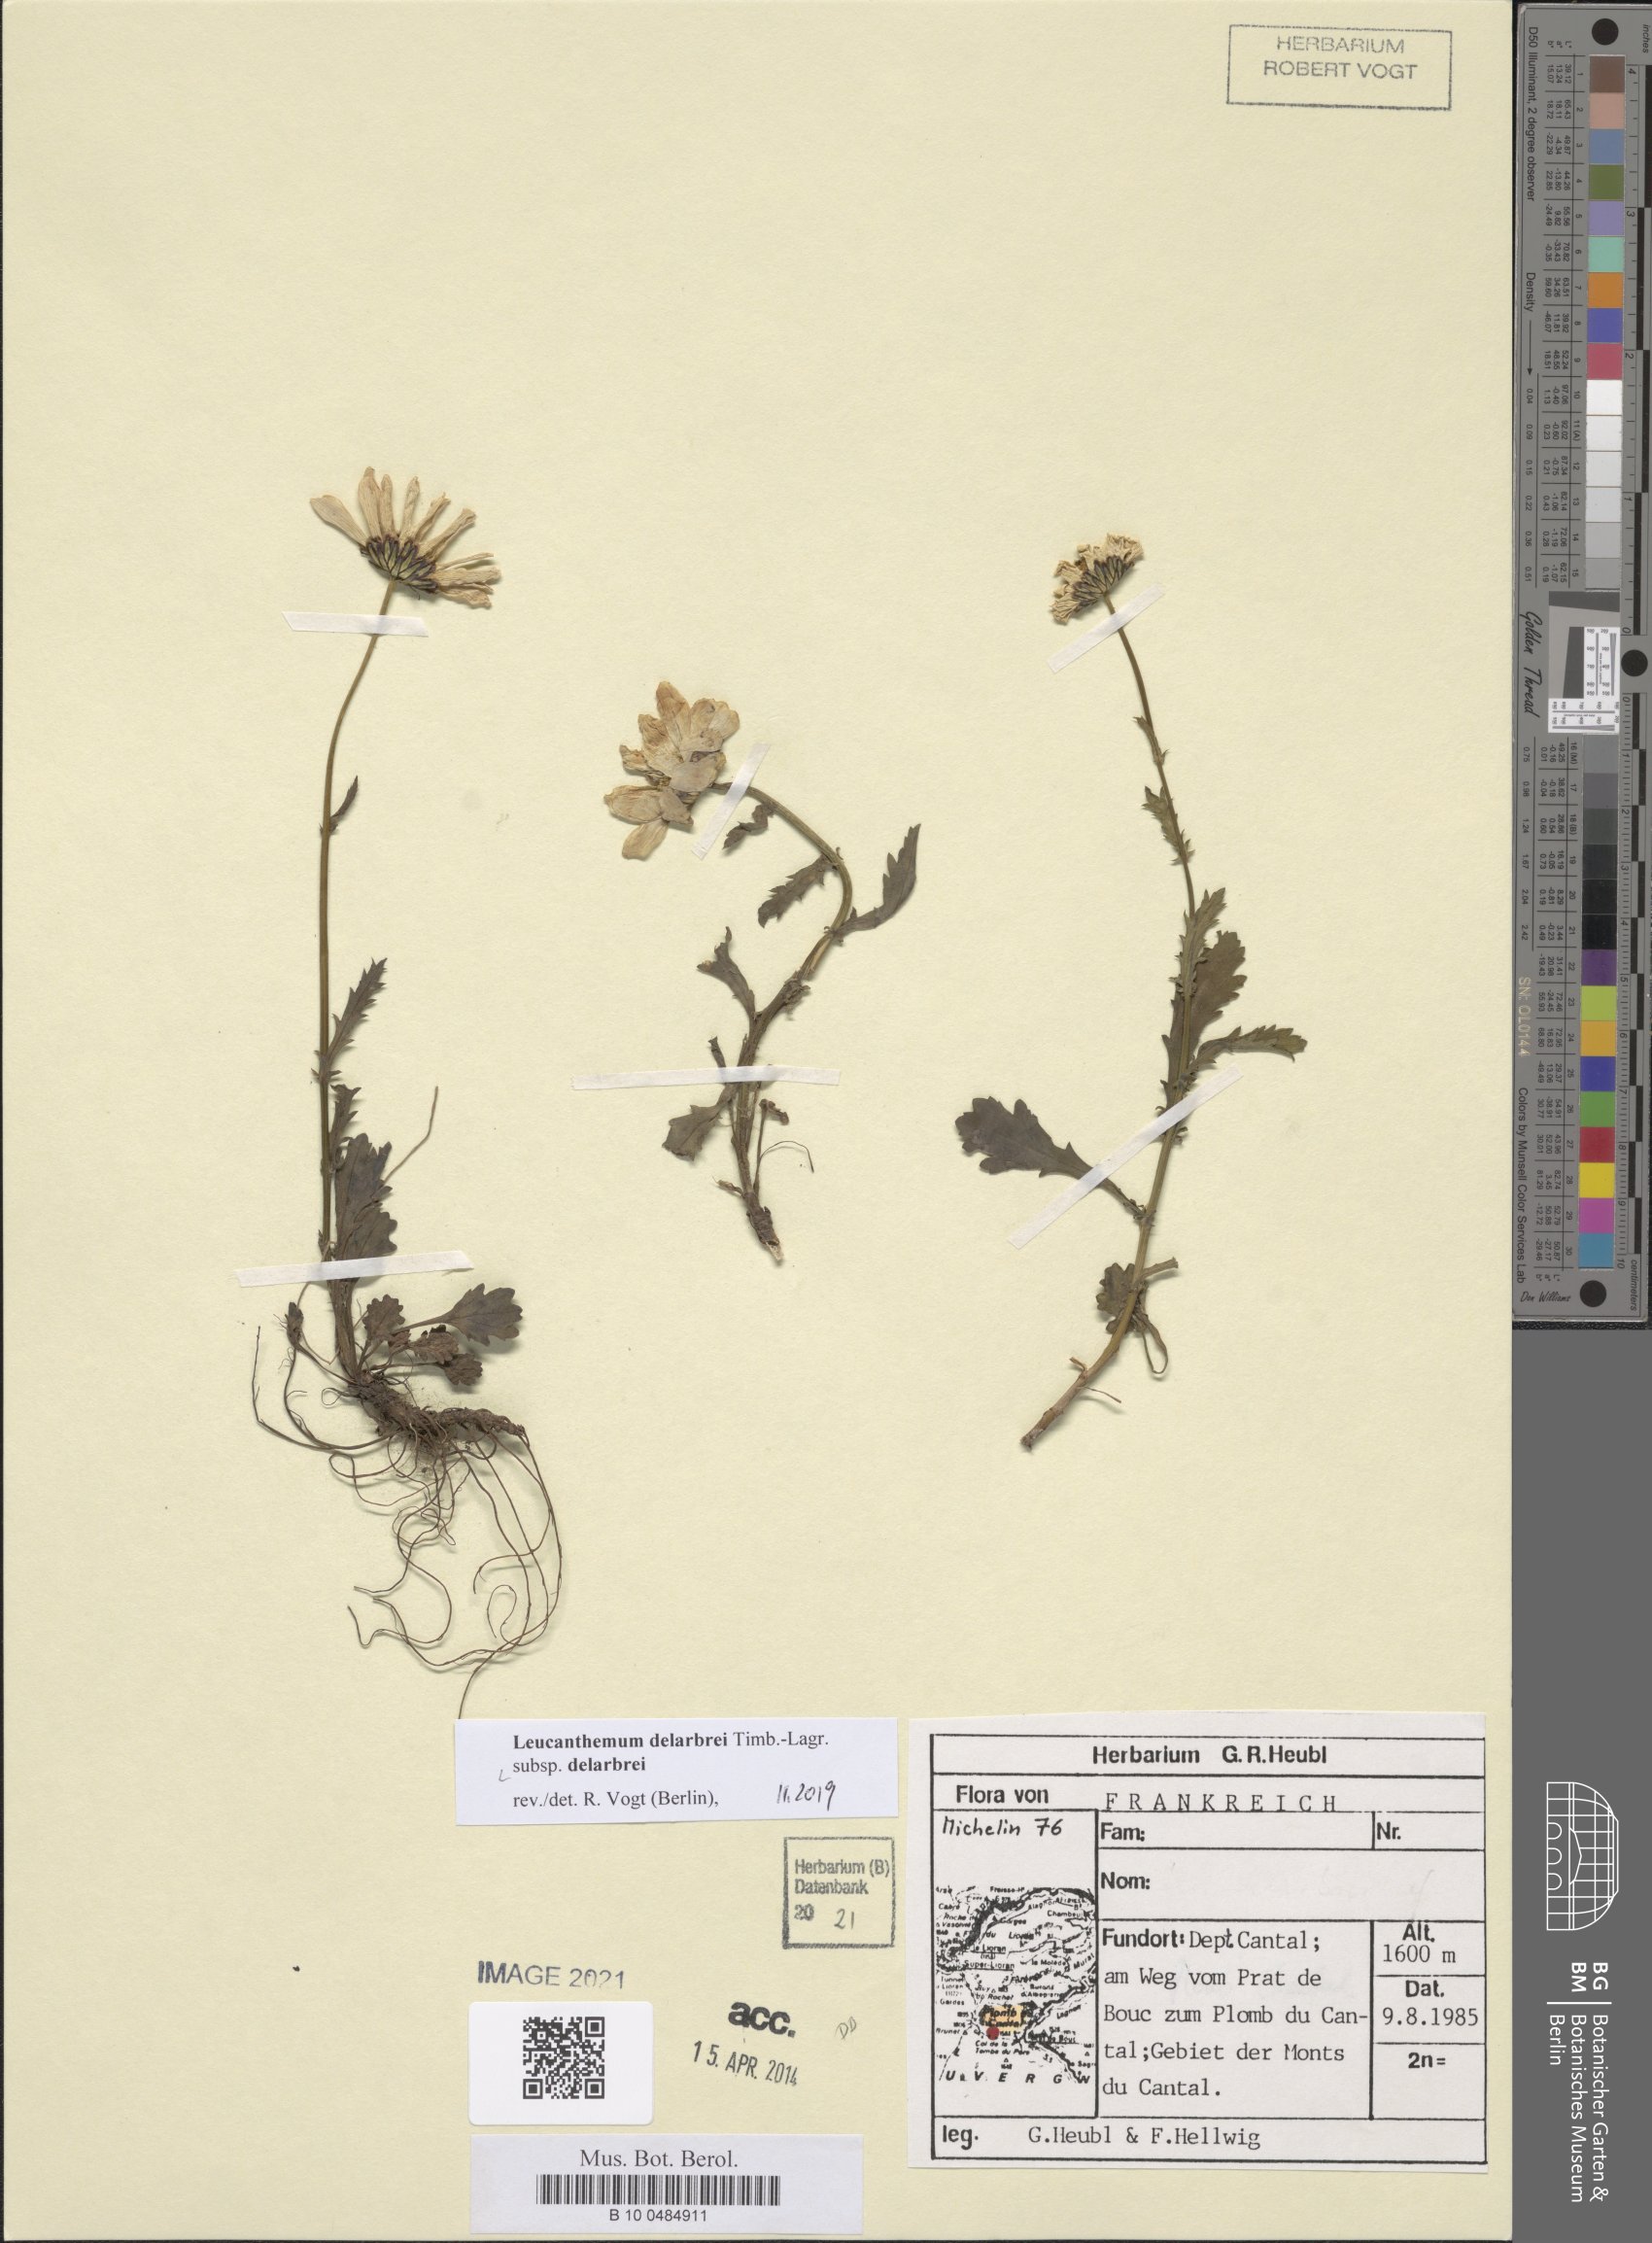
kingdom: Plantae
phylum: Tracheophyta
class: Magnoliopsida
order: Asterales
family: Asteraceae
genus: Leucanthemum
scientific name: Leucanthemum delarbrei
